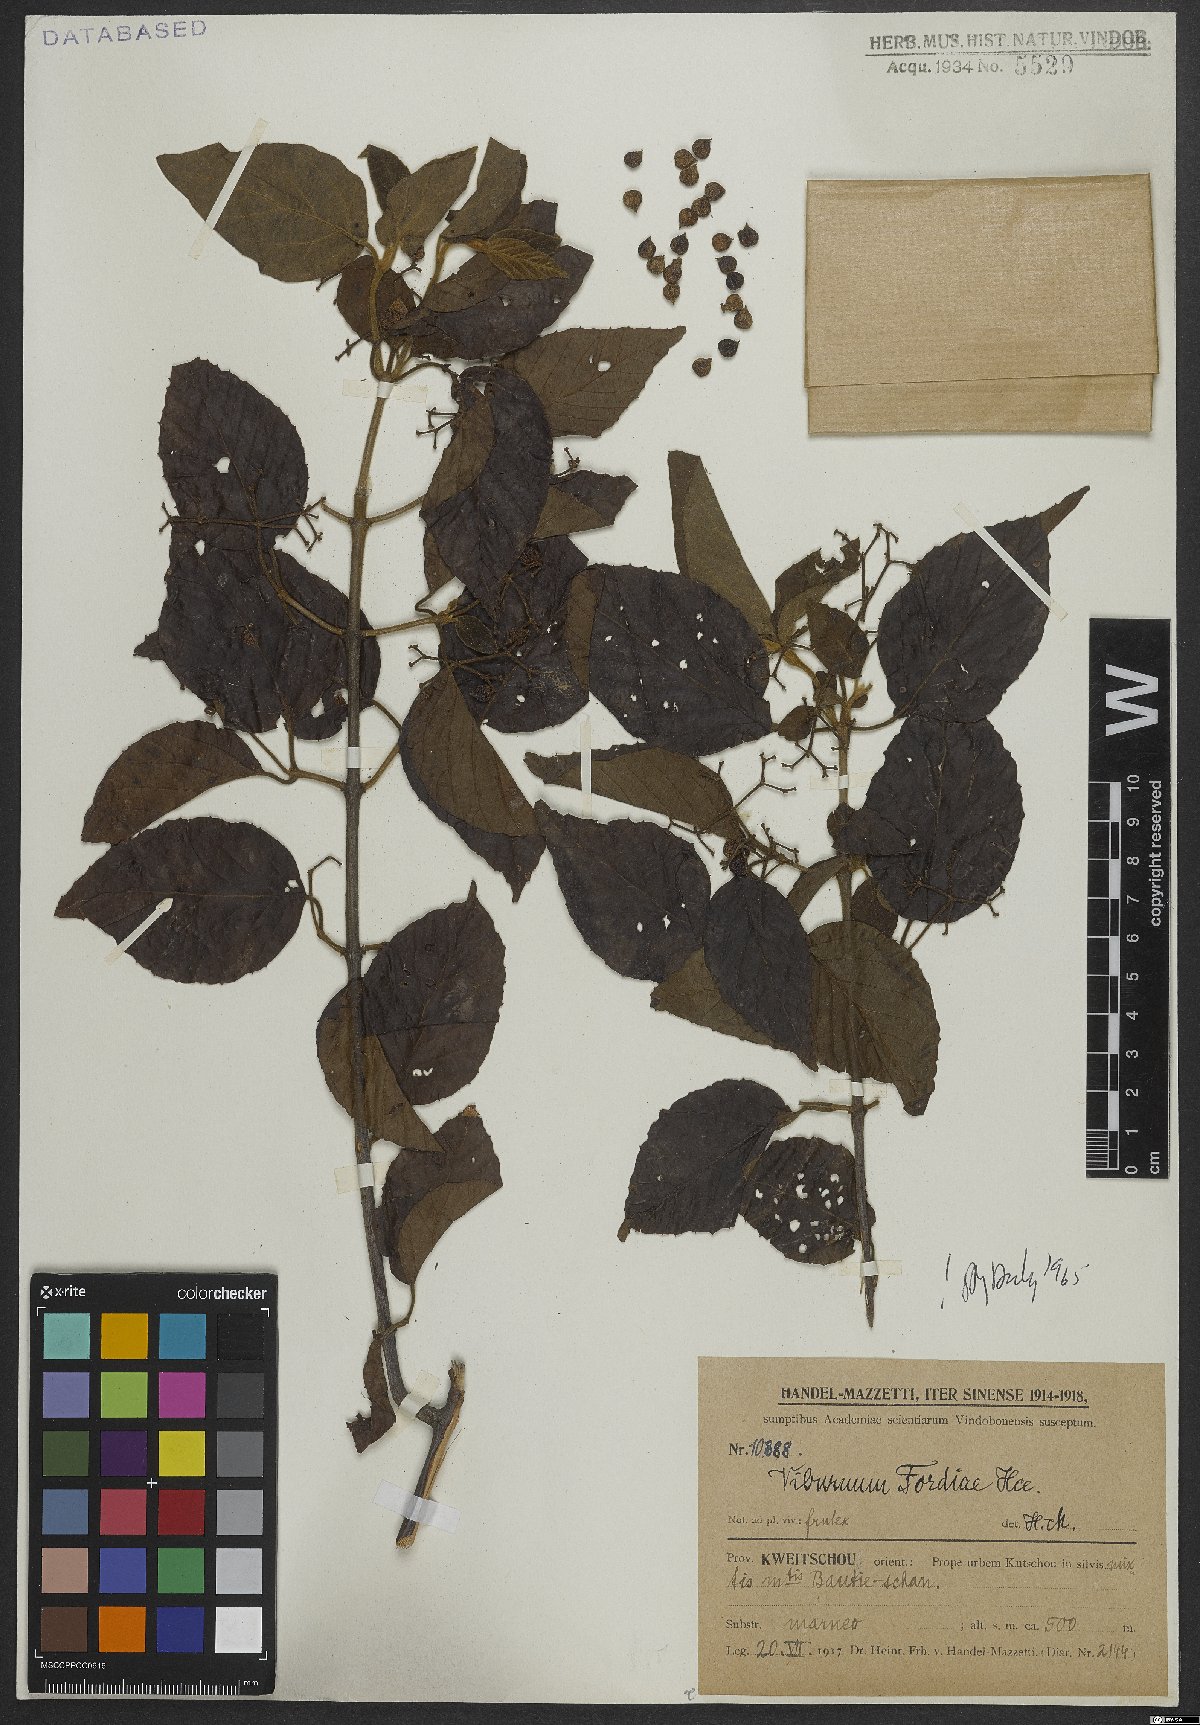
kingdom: Plantae
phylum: Tracheophyta
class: Magnoliopsida
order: Dipsacales
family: Viburnaceae
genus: Viburnum
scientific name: Viburnum fordiae
